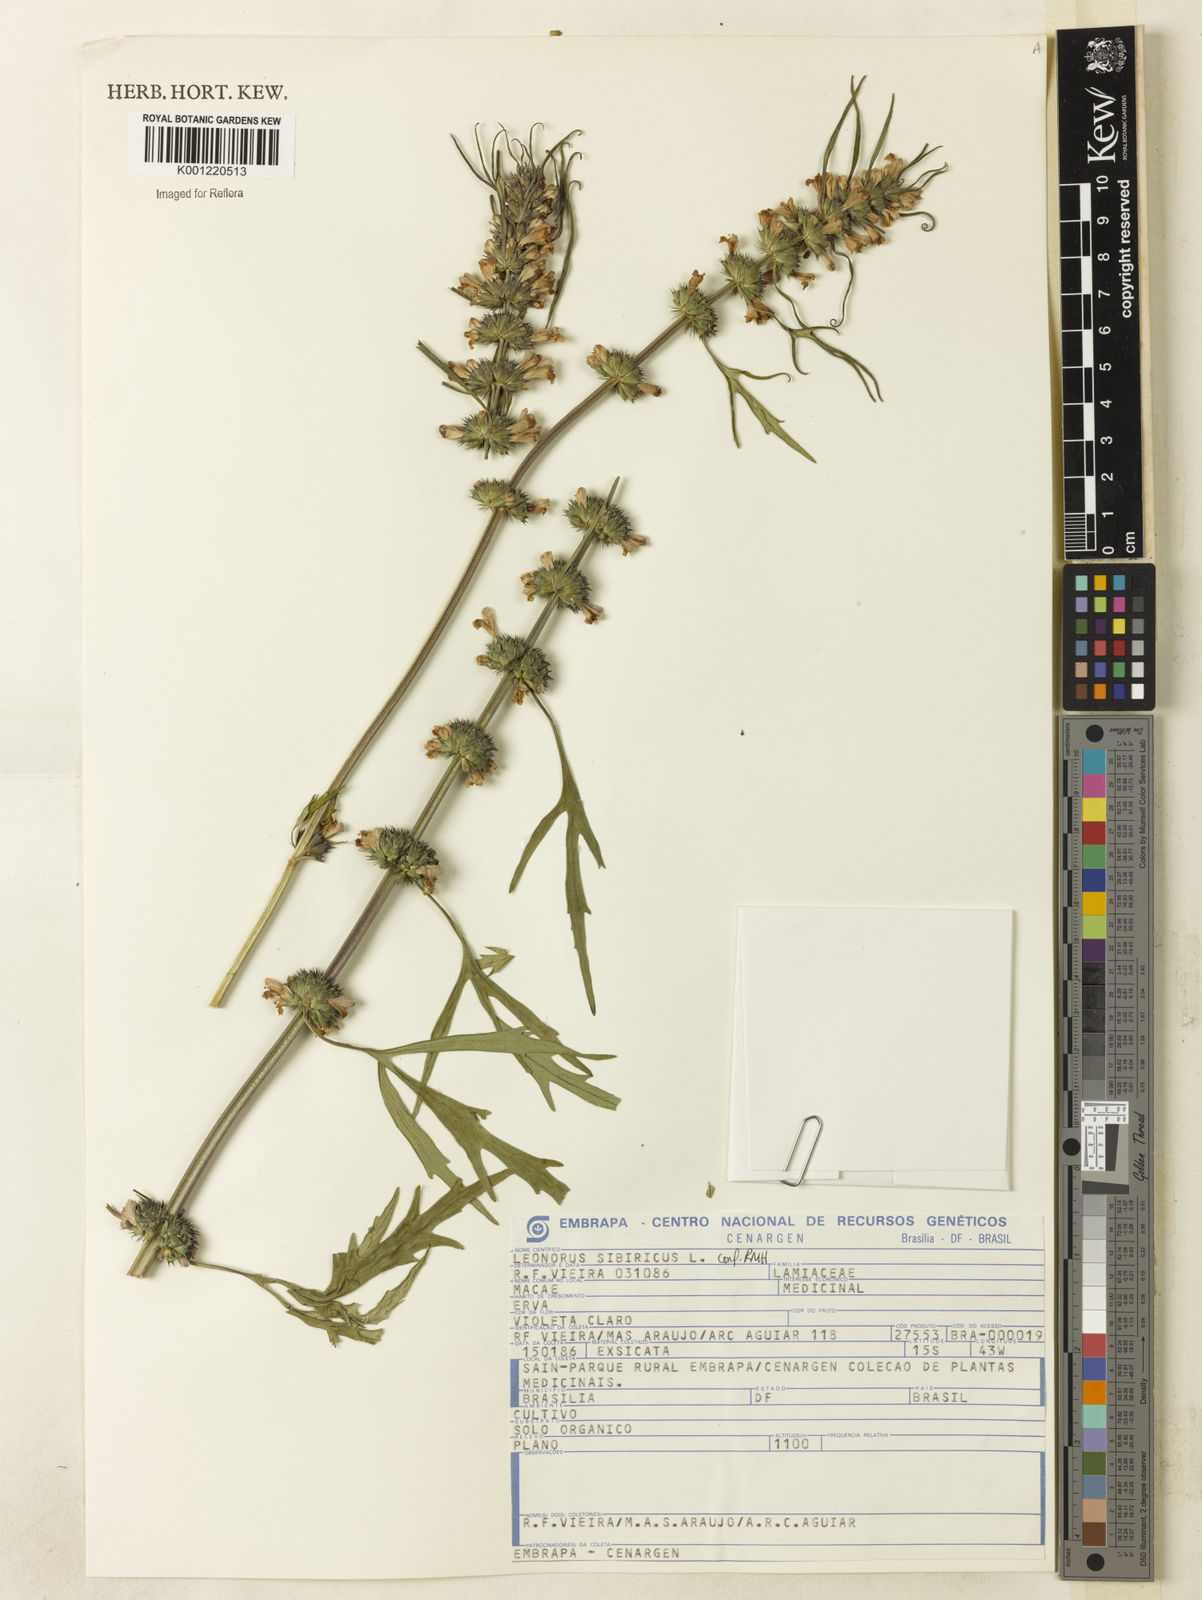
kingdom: Plantae
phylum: Tracheophyta
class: Magnoliopsida
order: Lamiales
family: Lamiaceae
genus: Leonurus
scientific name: Leonurus japonicus
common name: Honeyweed
